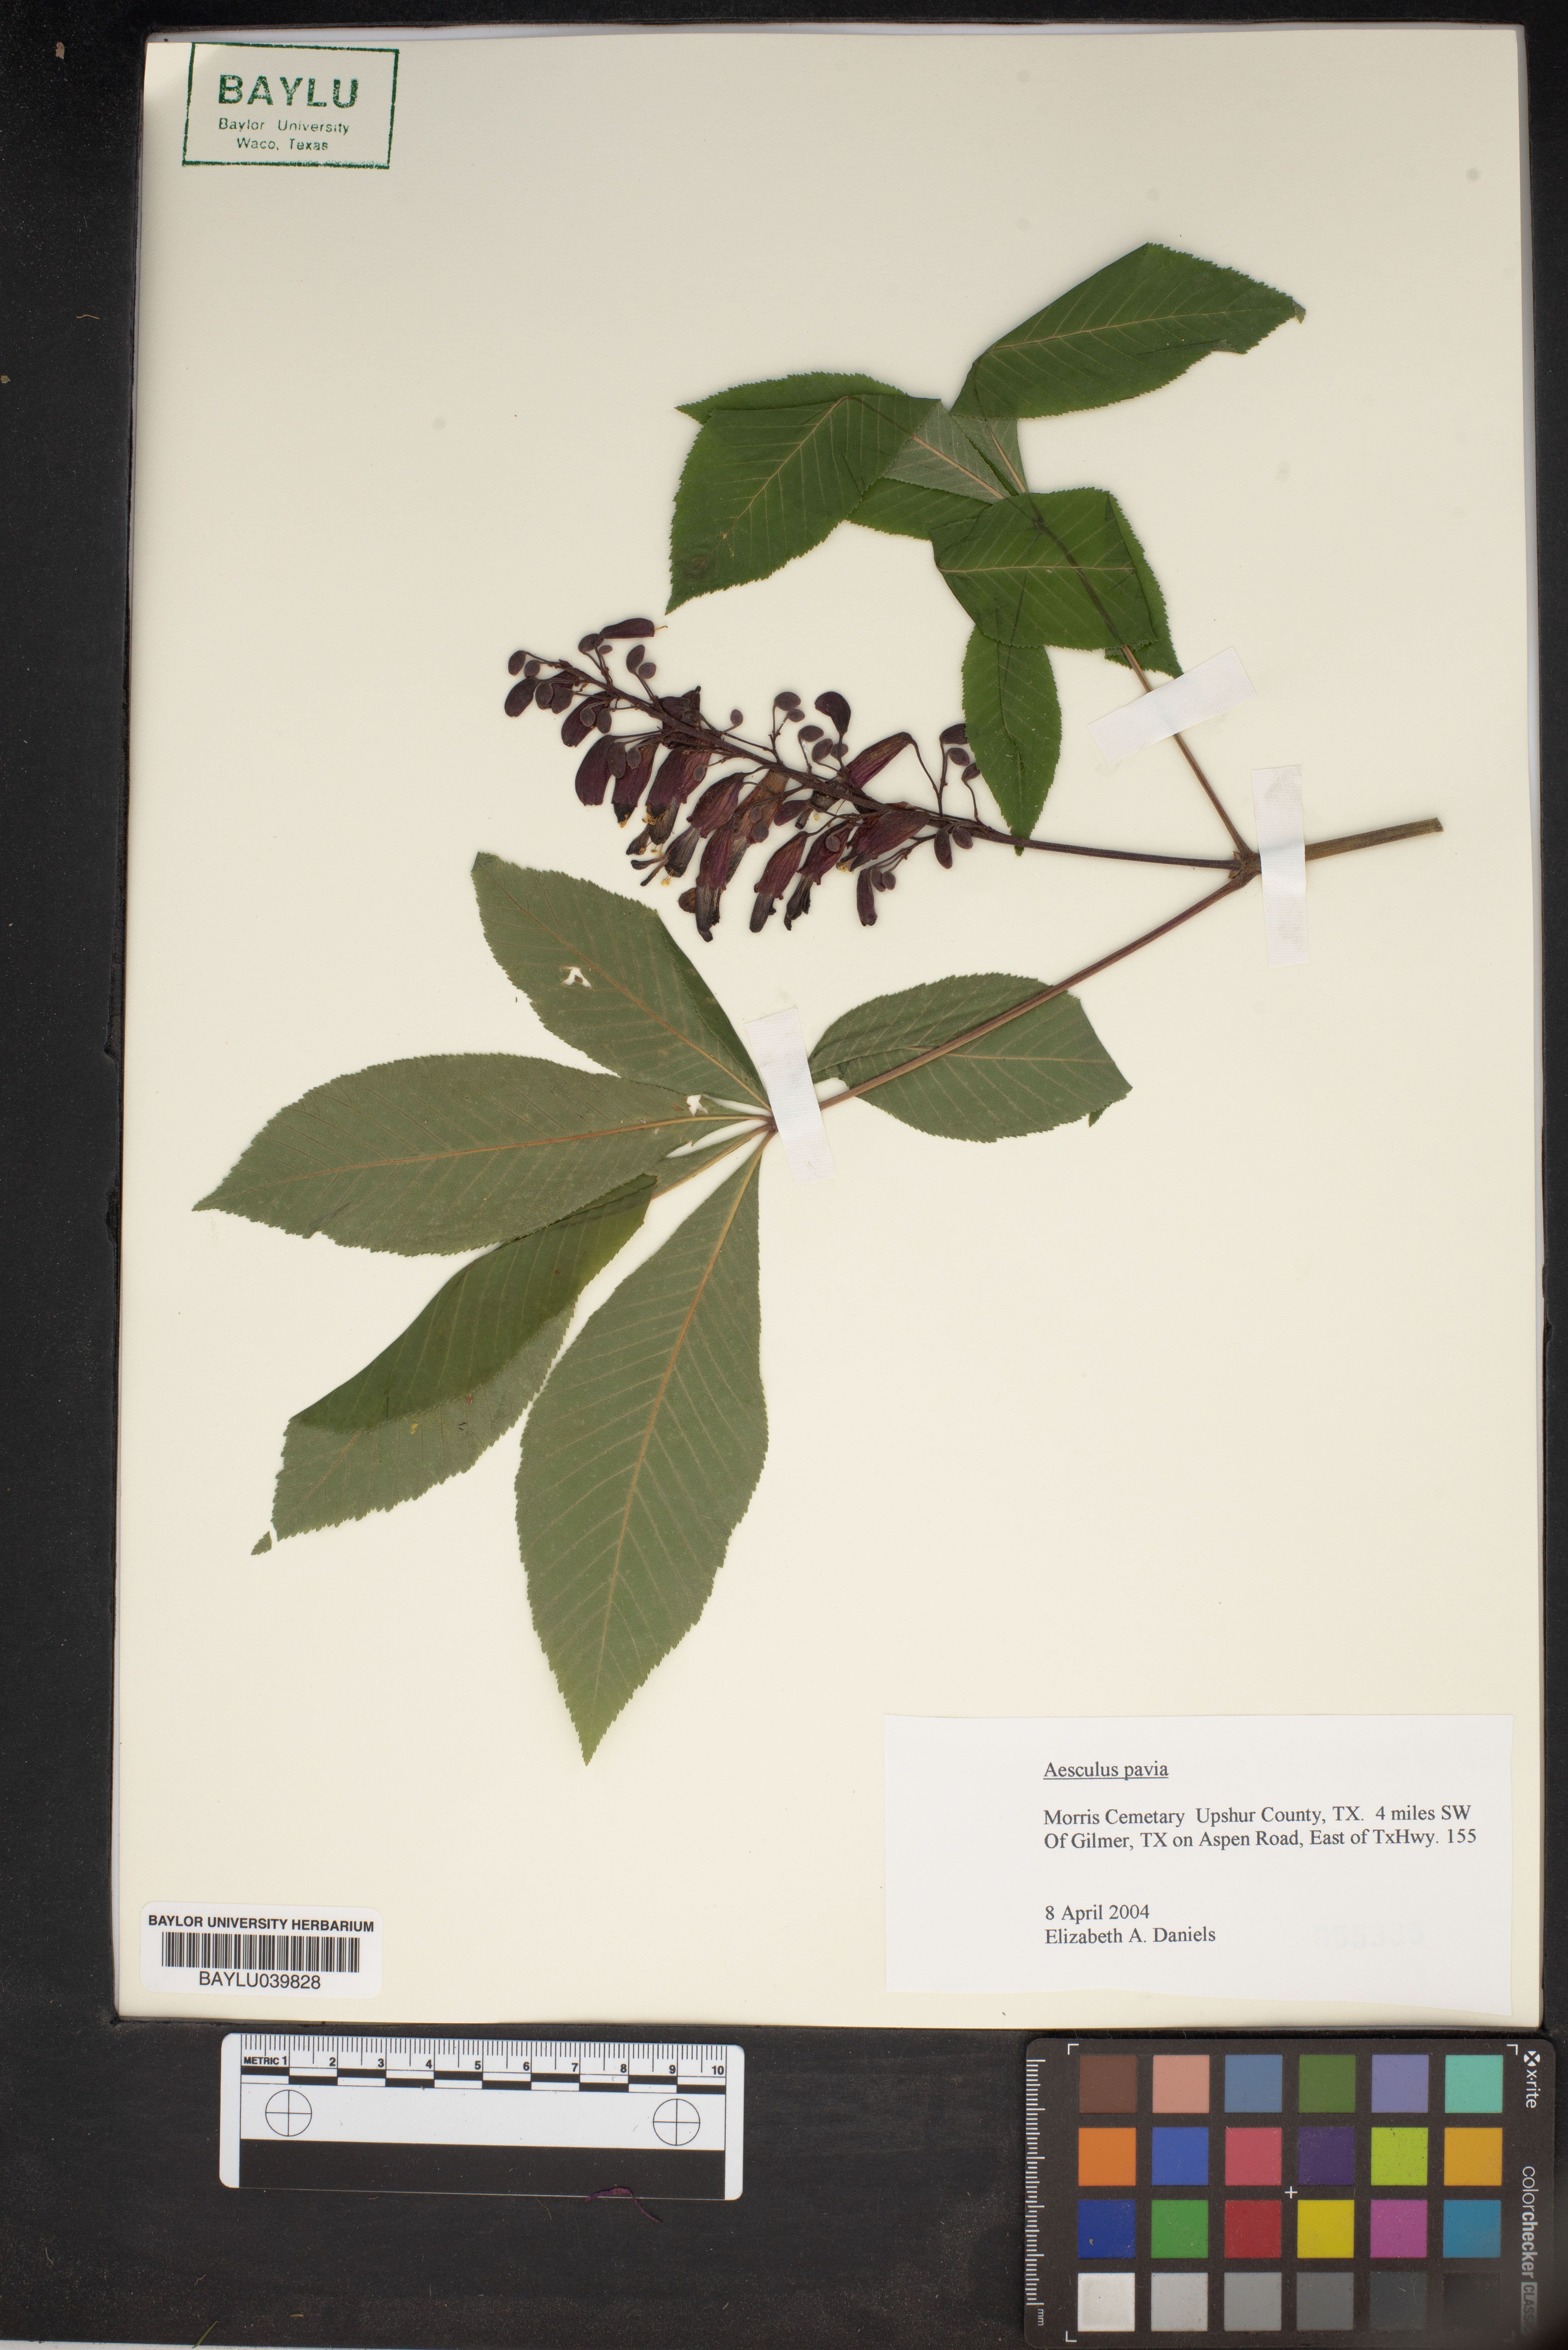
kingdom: Plantae
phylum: Tracheophyta
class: Magnoliopsida
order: Sapindales
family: Sapindaceae
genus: Aesculus
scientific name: Aesculus pavia
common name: Red buckeye
